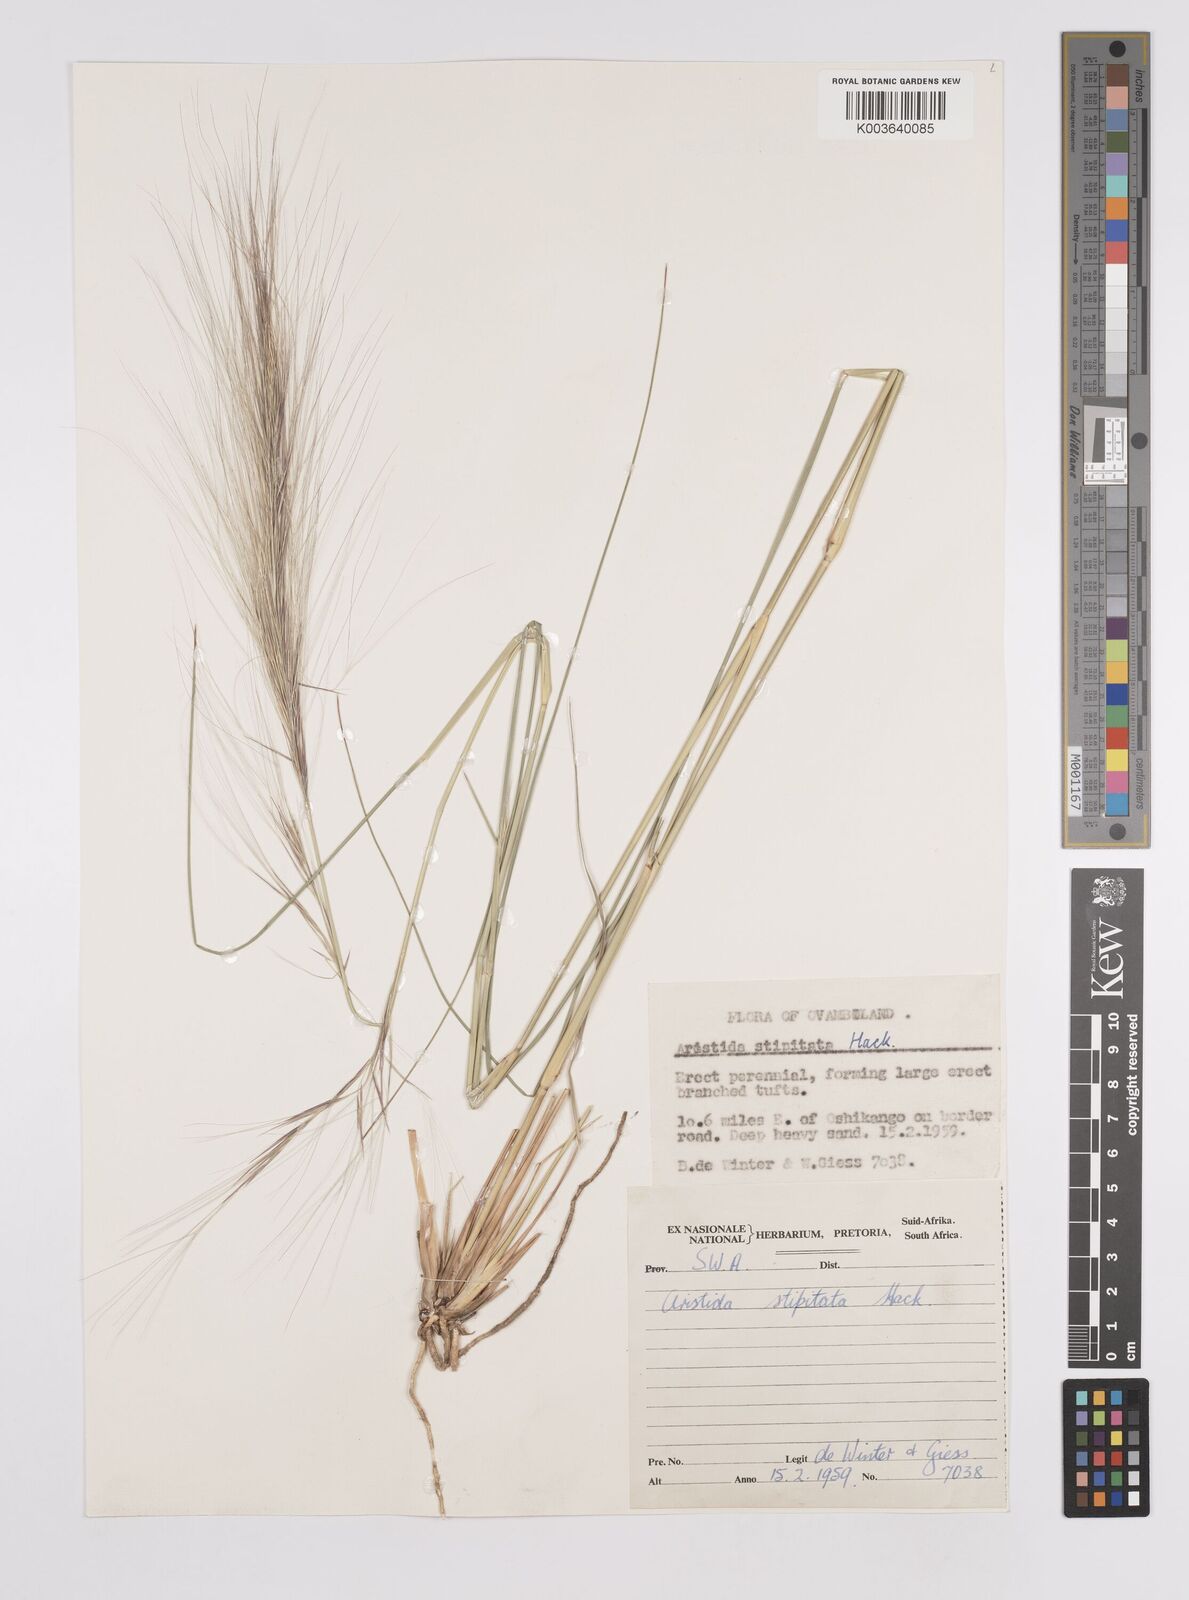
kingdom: Plantae
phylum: Tracheophyta
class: Liliopsida
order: Poales
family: Poaceae
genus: Aristida
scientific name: Aristida stipitata
